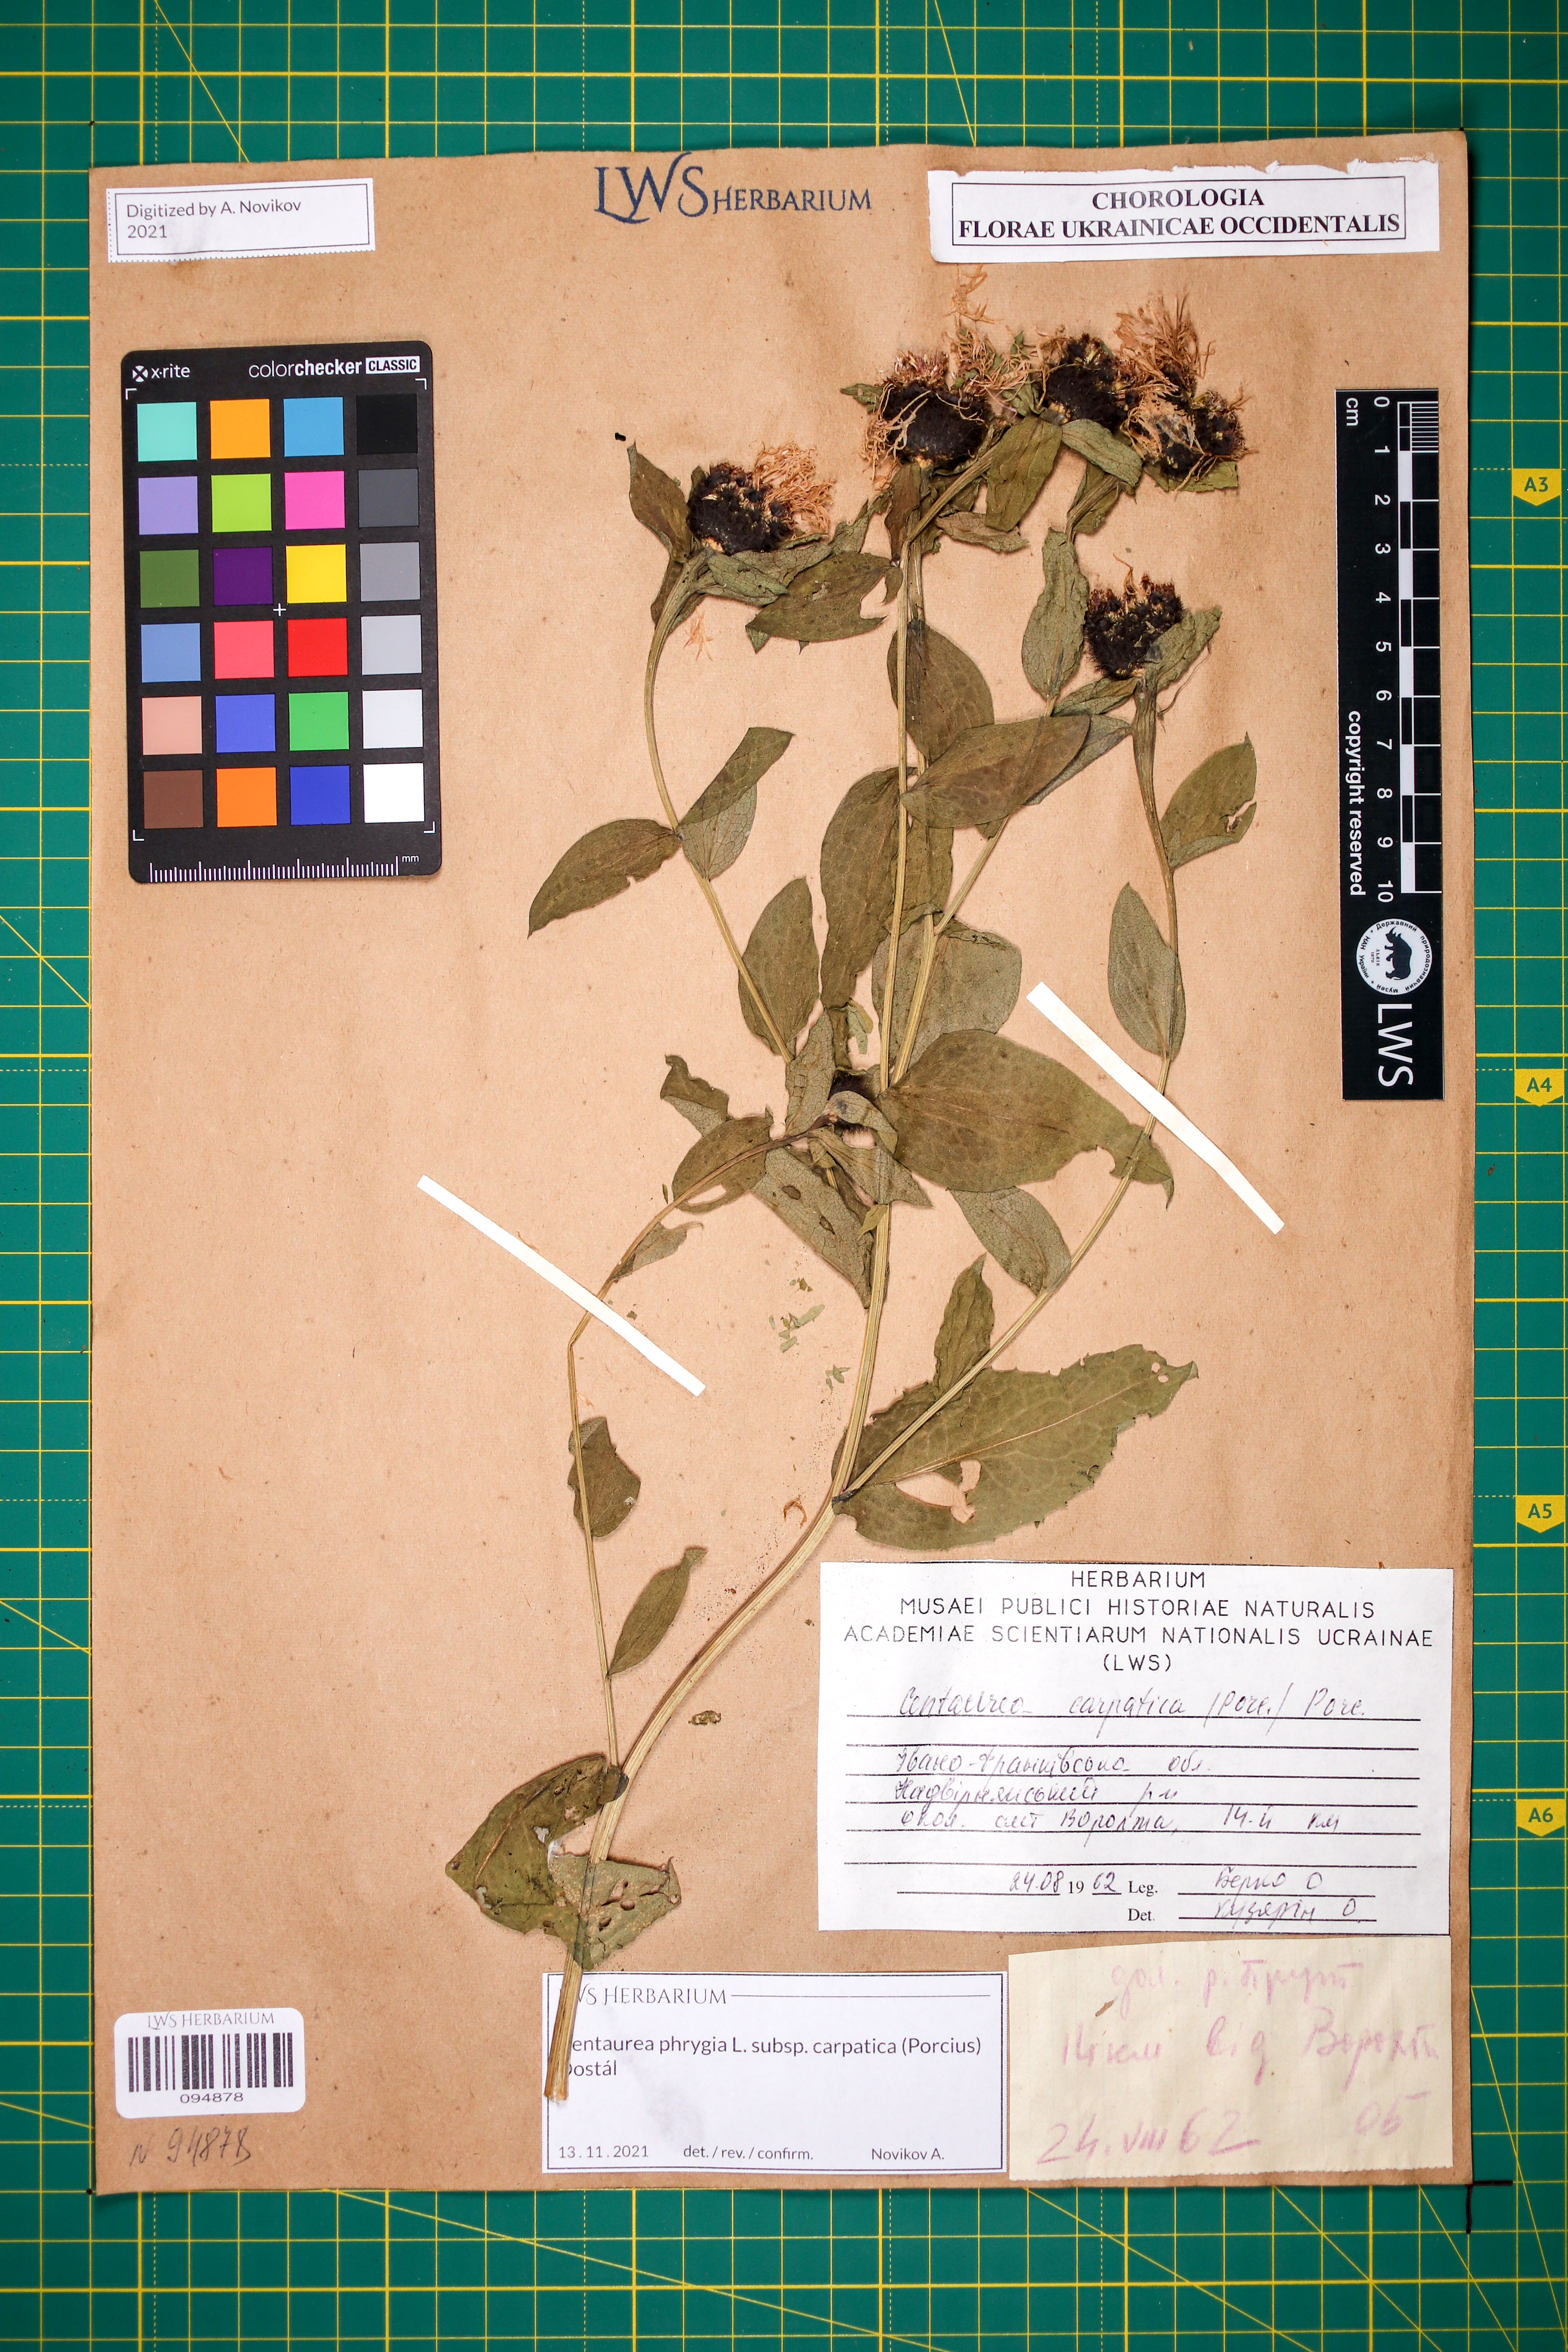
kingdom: Plantae
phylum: Tracheophyta
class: Magnoliopsida
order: Asterales
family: Asteraceae
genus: Centaurea
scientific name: Centaurea phrygia
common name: Wig knapweed
